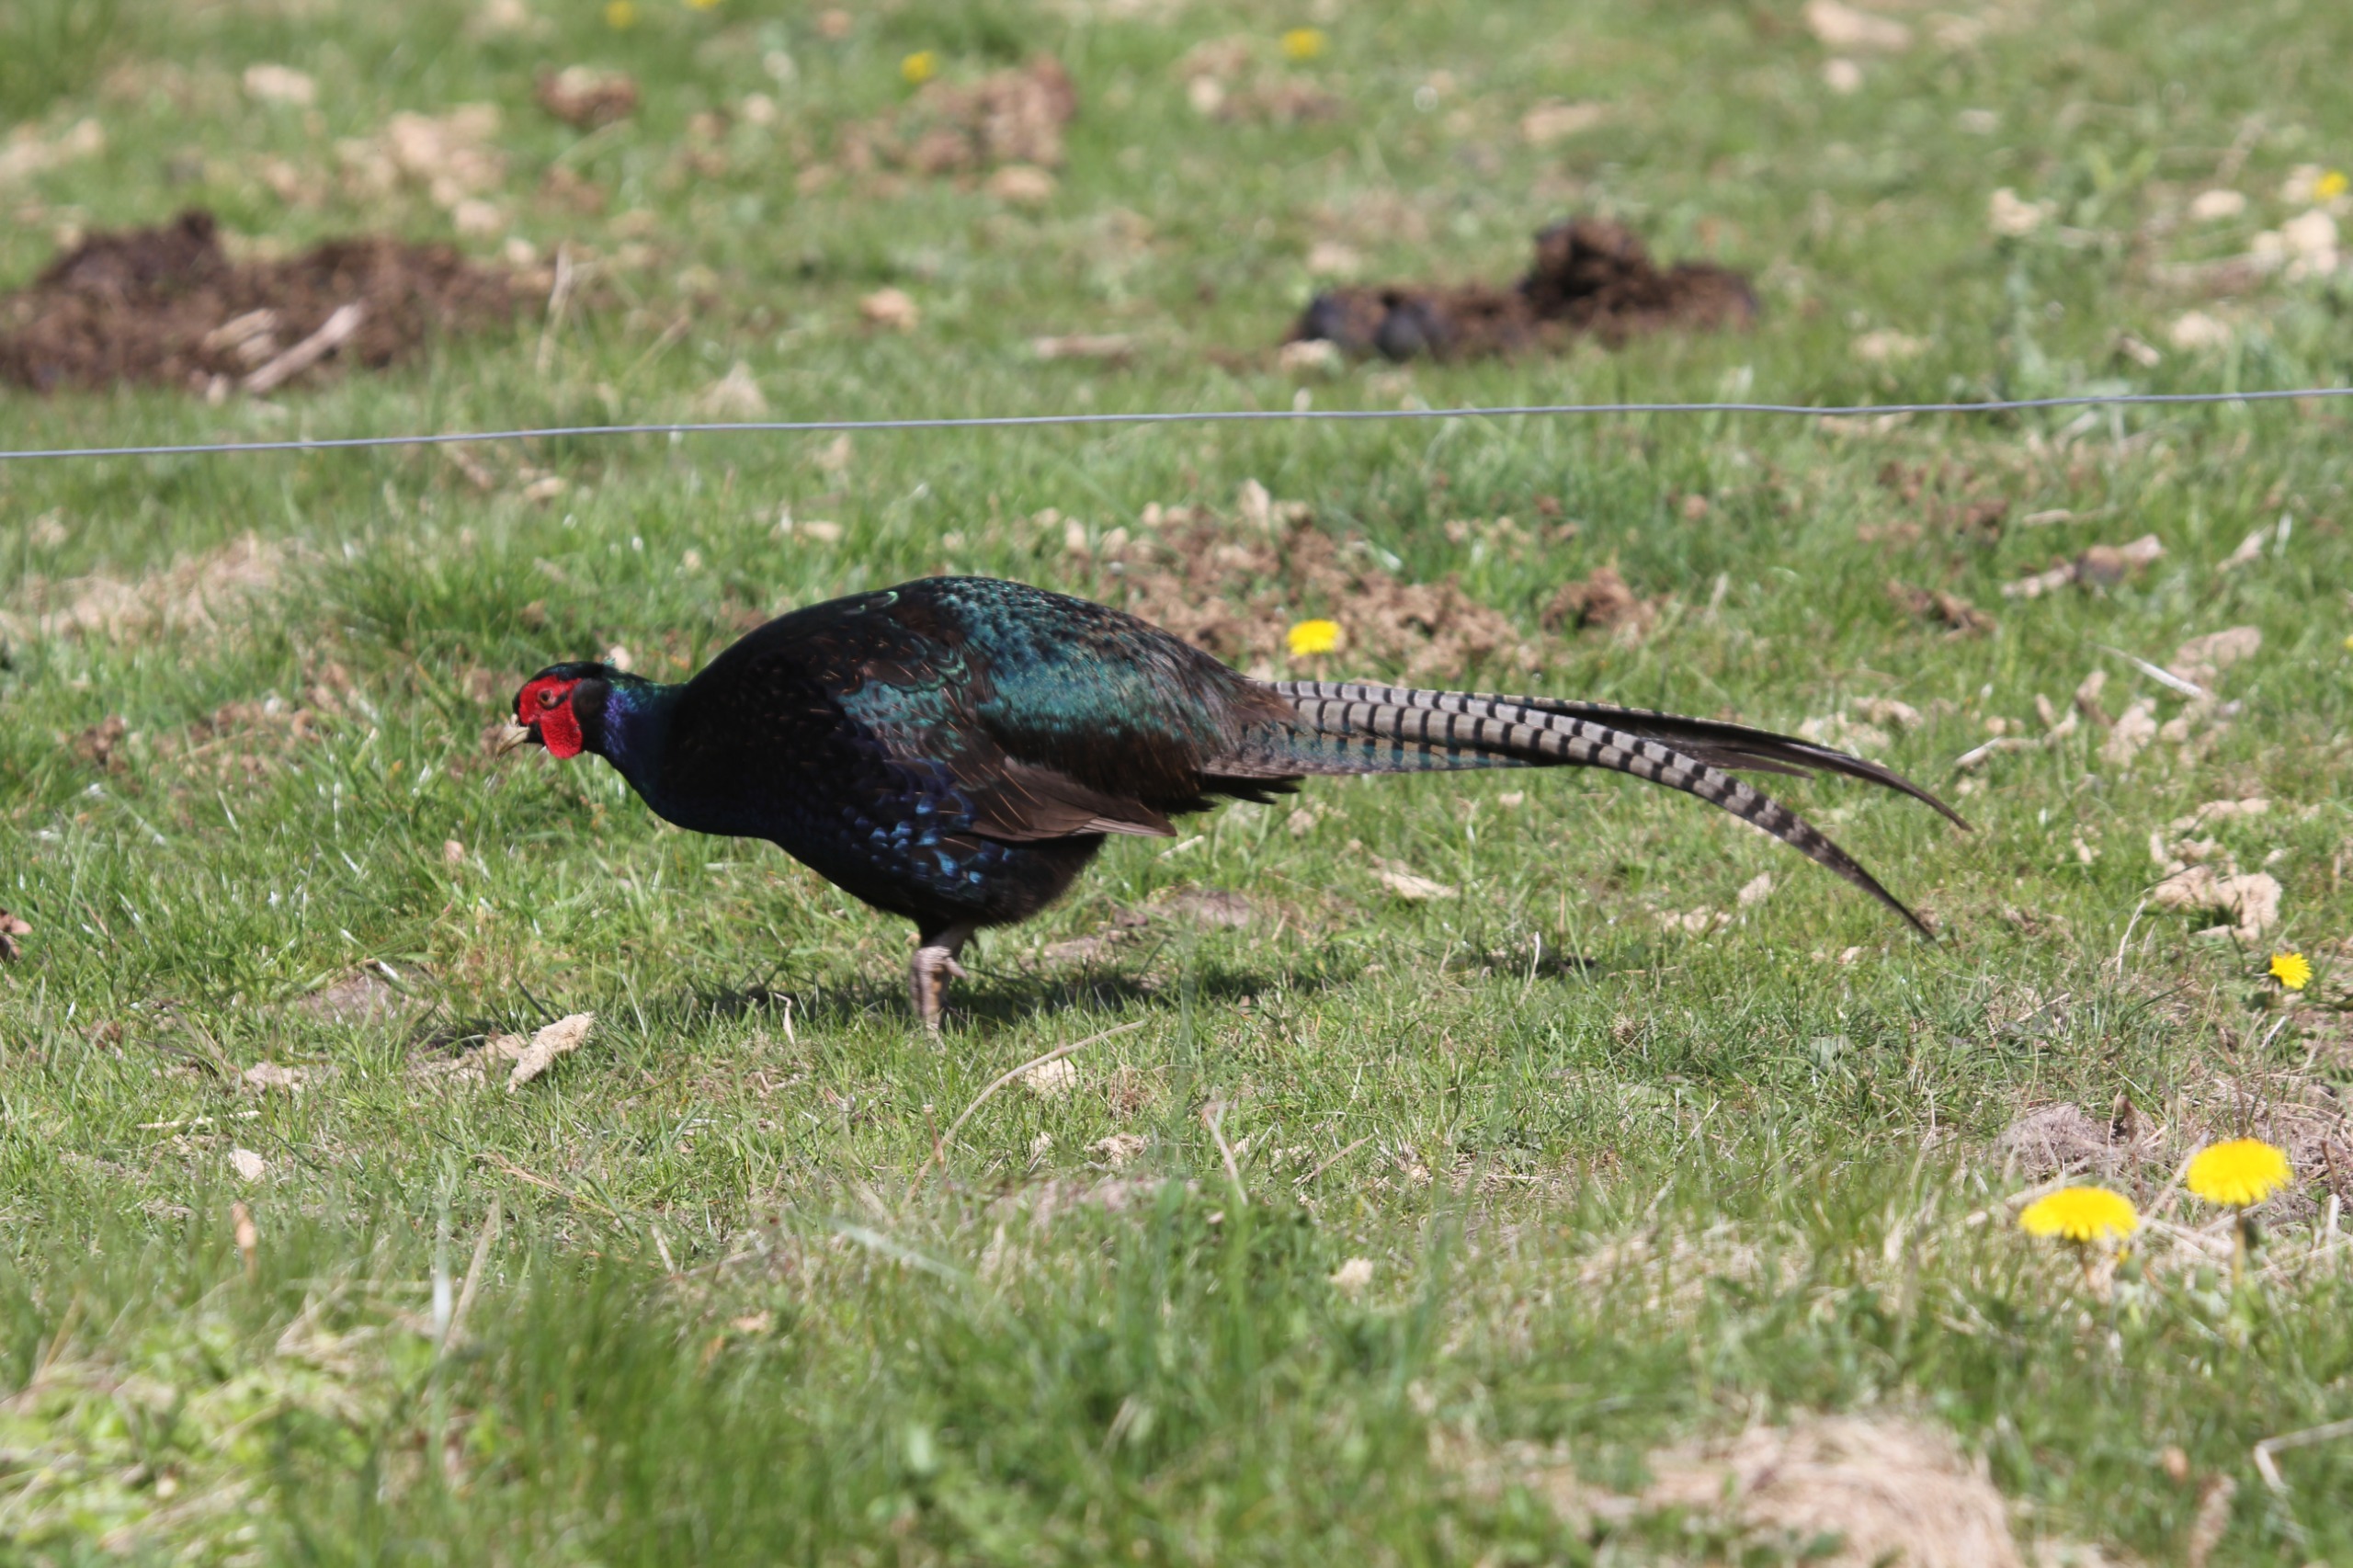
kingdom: Animalia
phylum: Chordata
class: Aves
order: Galliformes
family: Phasianidae
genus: Phasianus
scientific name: Phasianus colchicus
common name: Fasan
